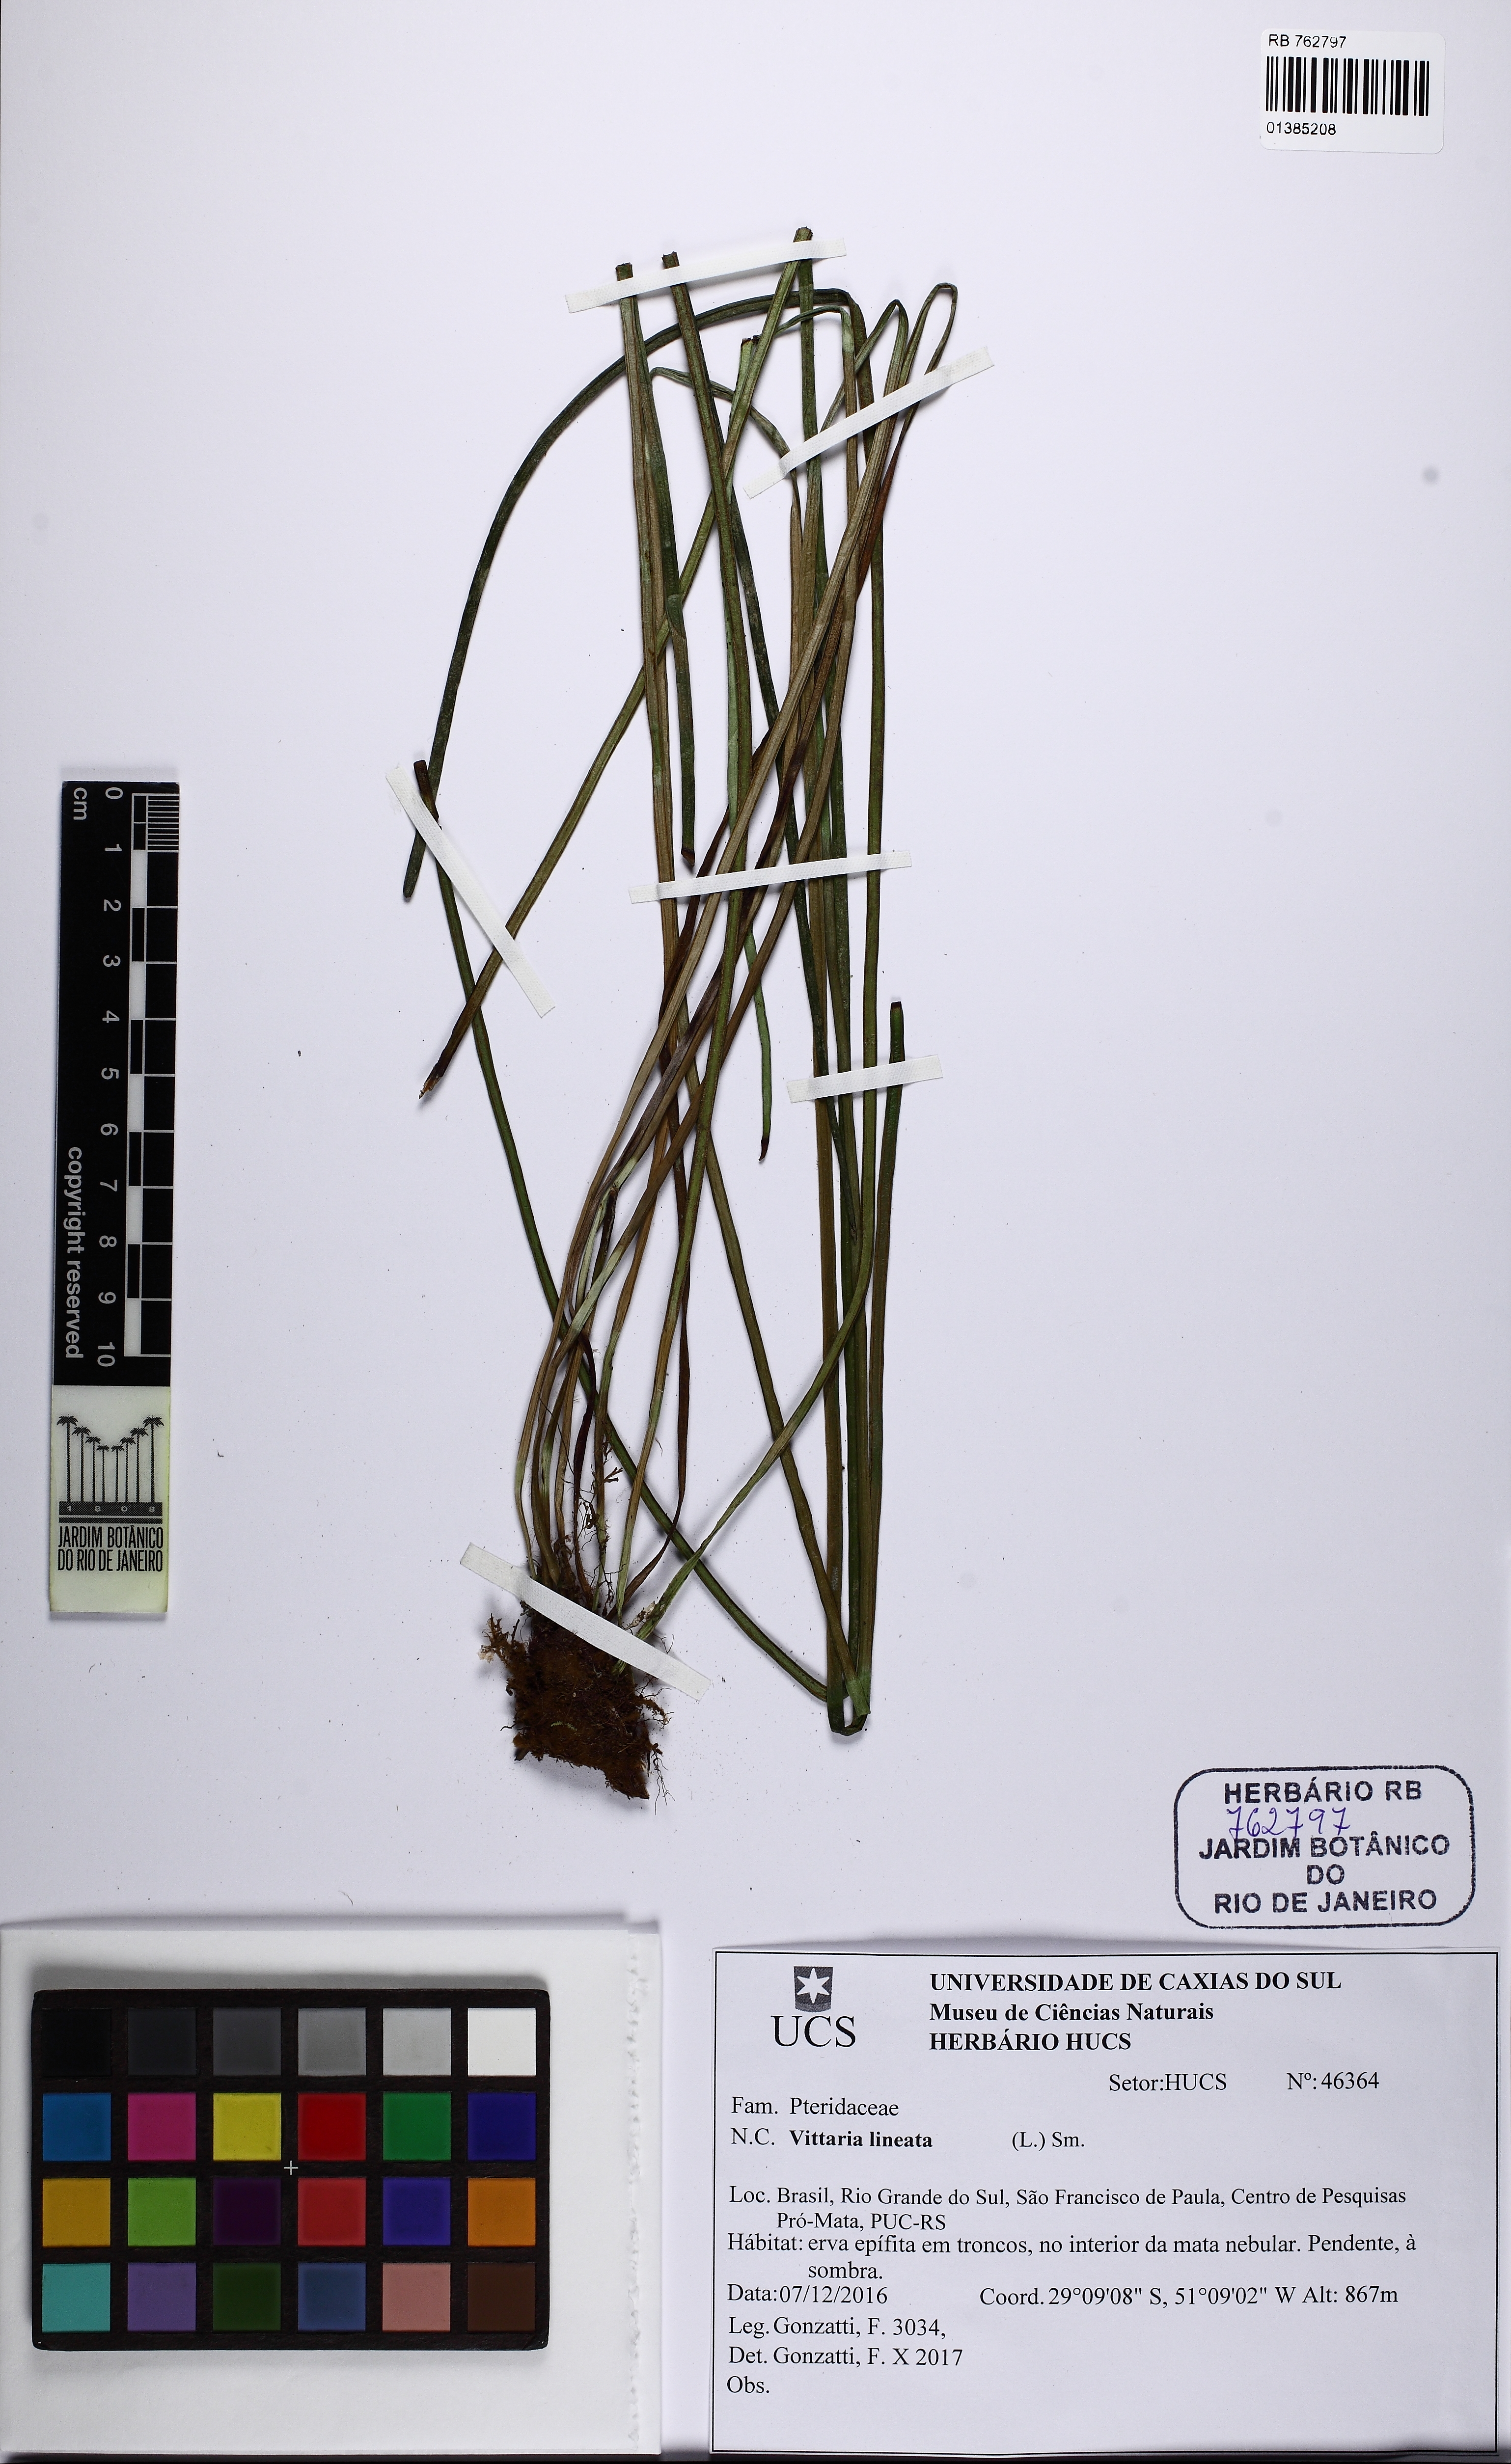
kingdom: Plantae
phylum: Tracheophyta
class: Polypodiopsida
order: Polypodiales
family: Pteridaceae
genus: Vittaria
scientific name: Vittaria lineata
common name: Shoestring fern
